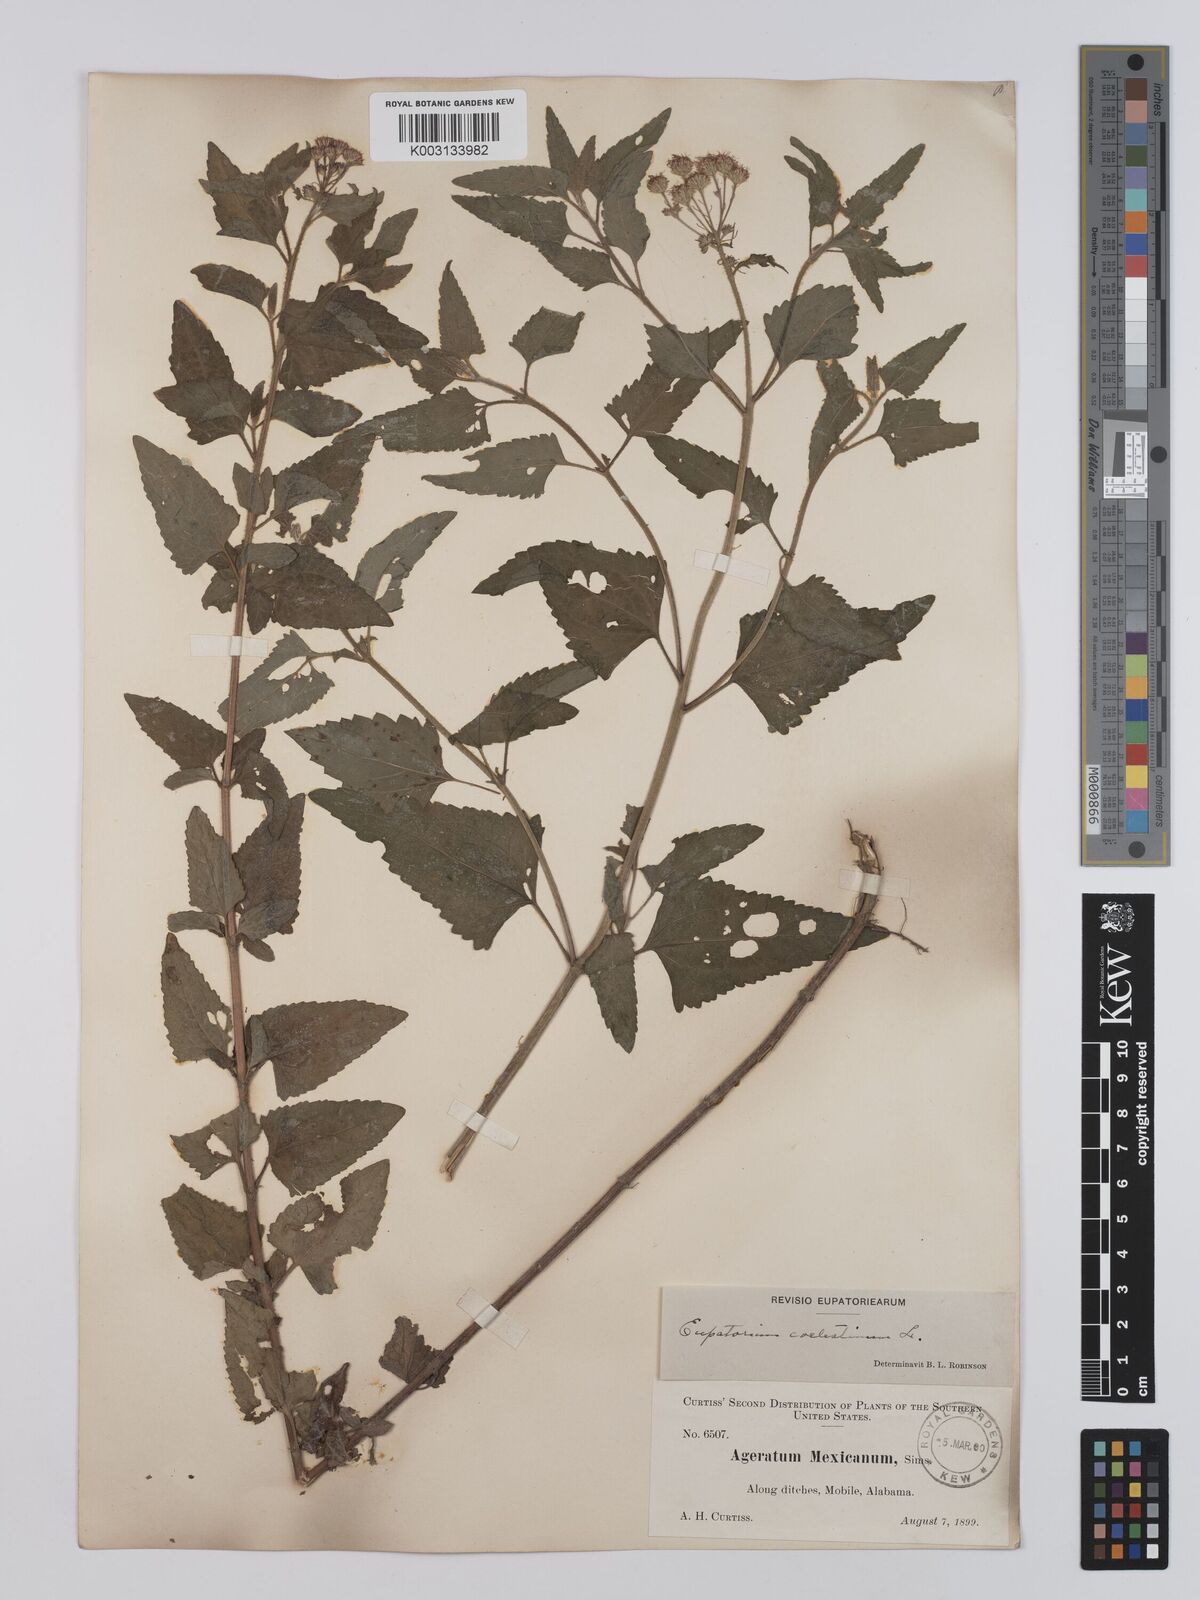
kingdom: Plantae
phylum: Tracheophyta
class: Magnoliopsida
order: Asterales
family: Asteraceae
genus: Conoclinium
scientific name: Conoclinium coelestinum
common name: Blue mistflower
